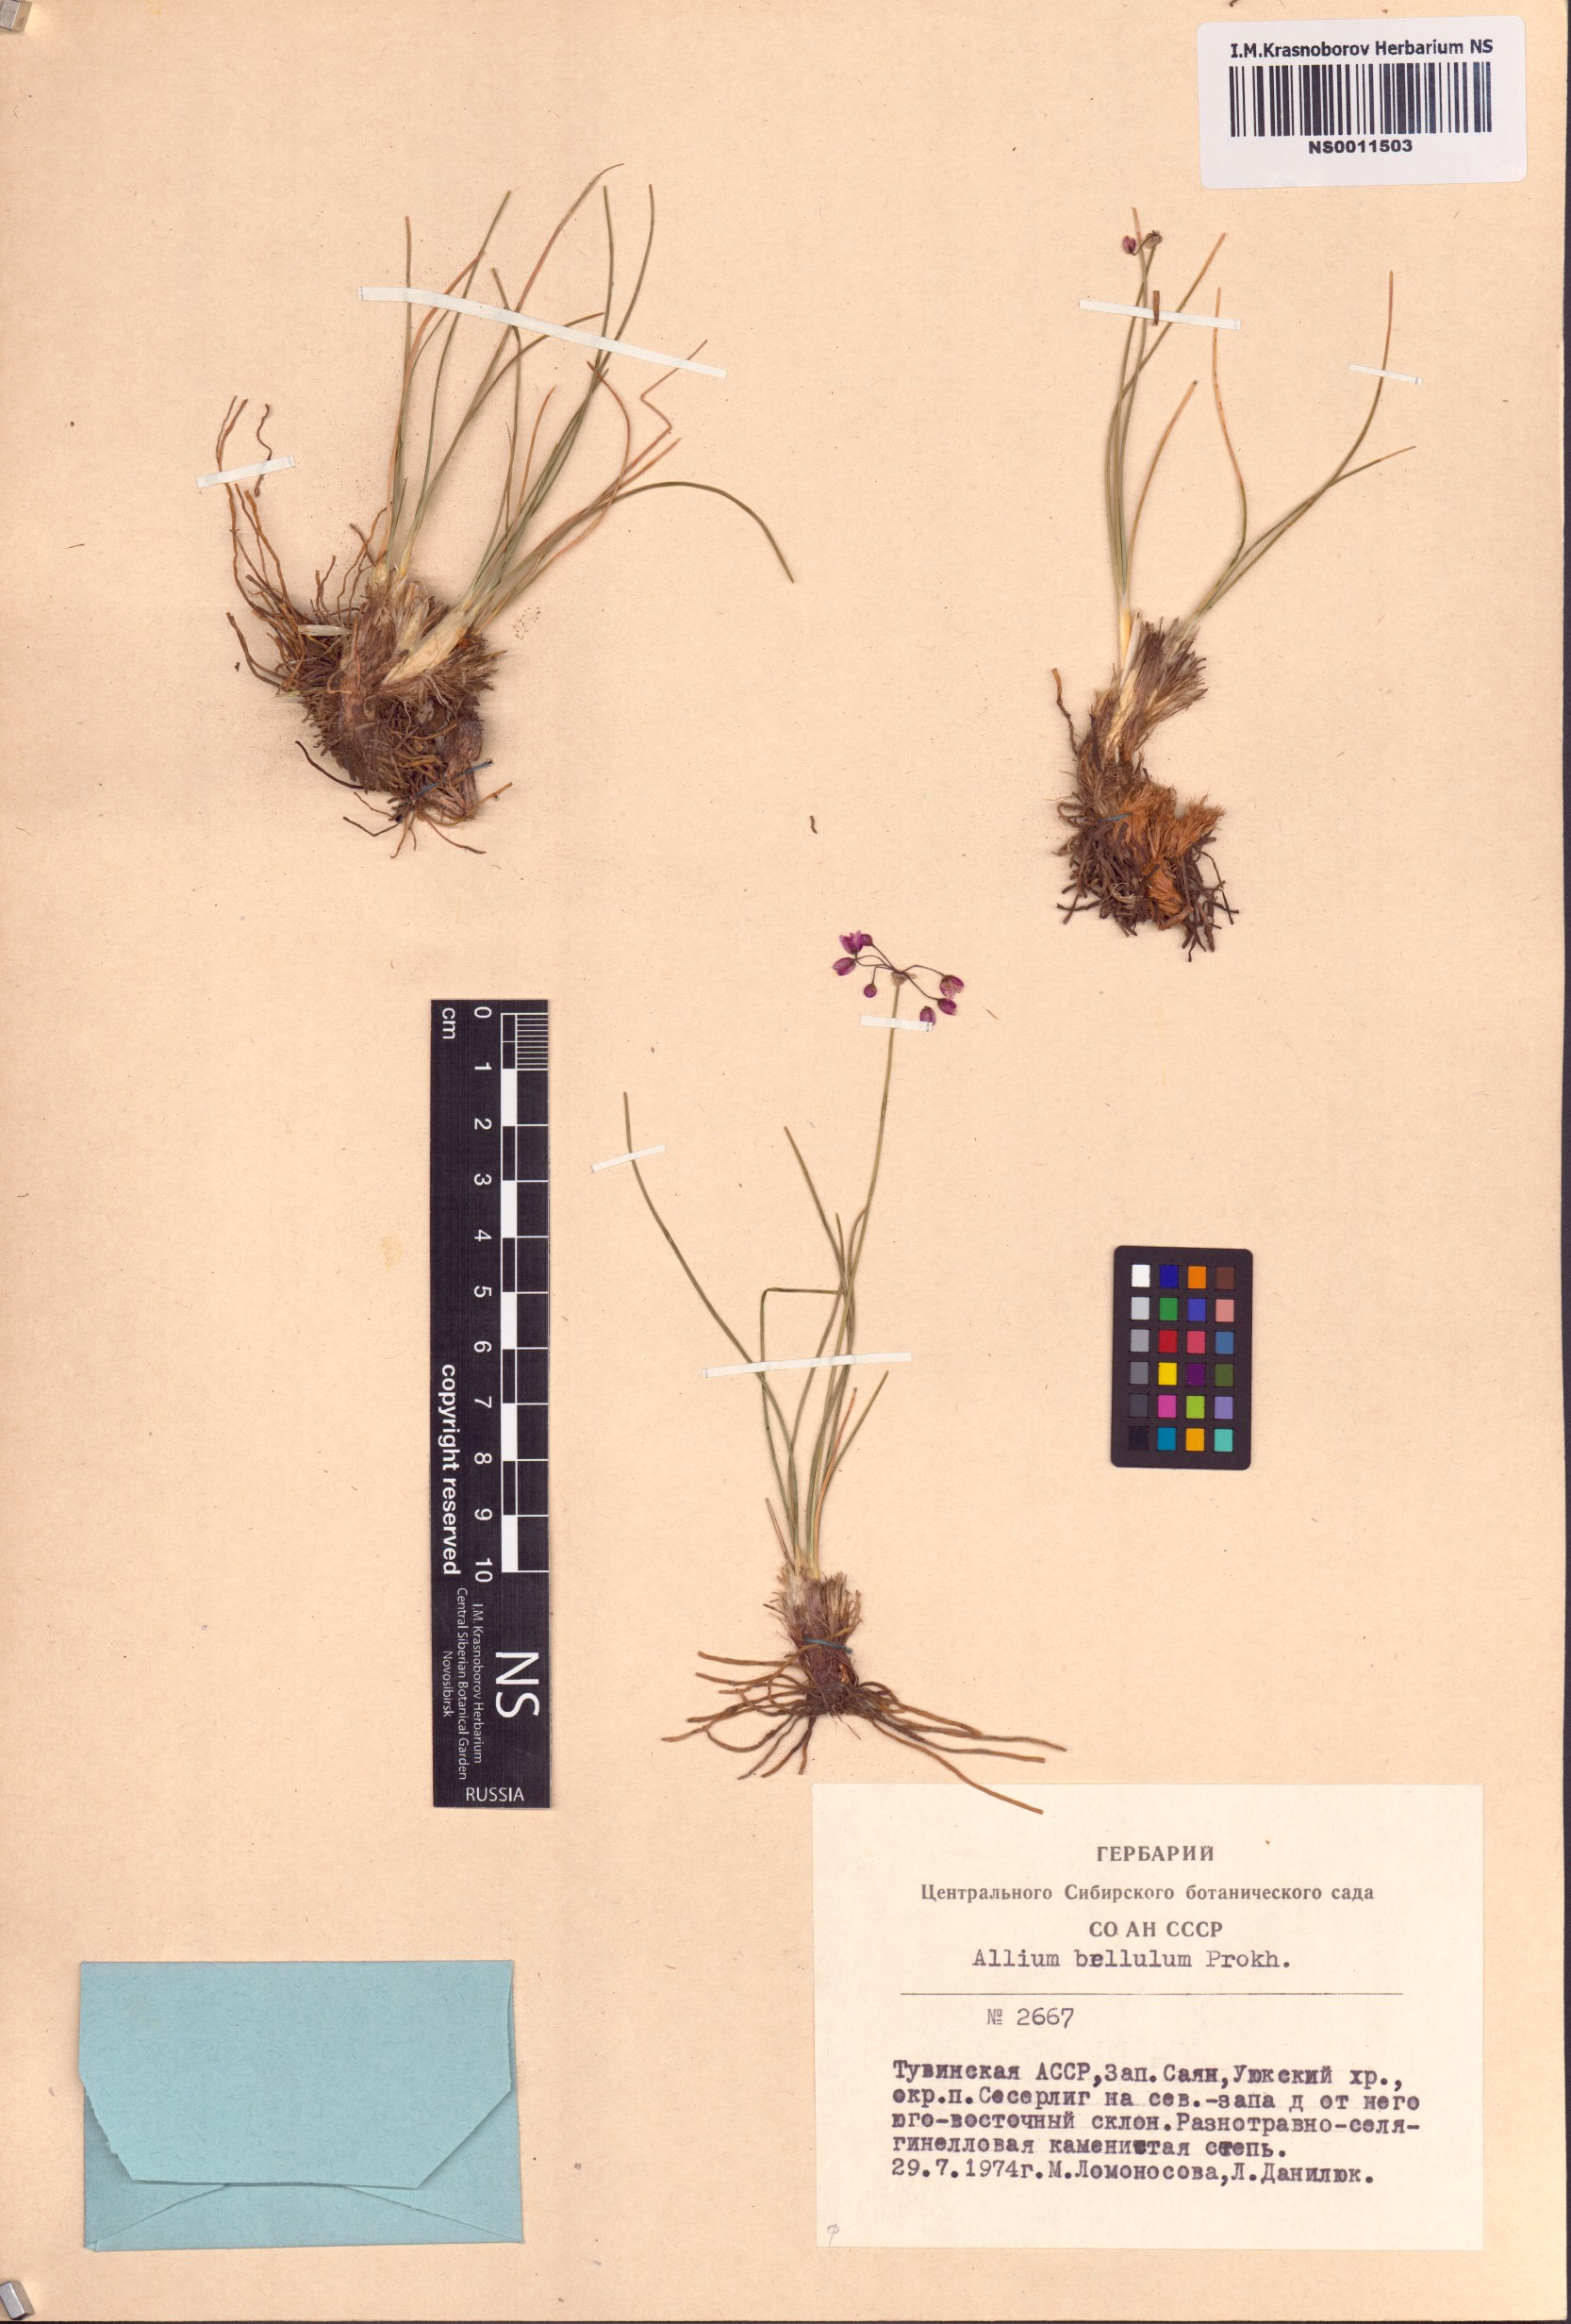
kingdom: Plantae
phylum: Tracheophyta
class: Liliopsida
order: Asparagales
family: Amaryllidaceae
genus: Allium
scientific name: Allium bellulum
